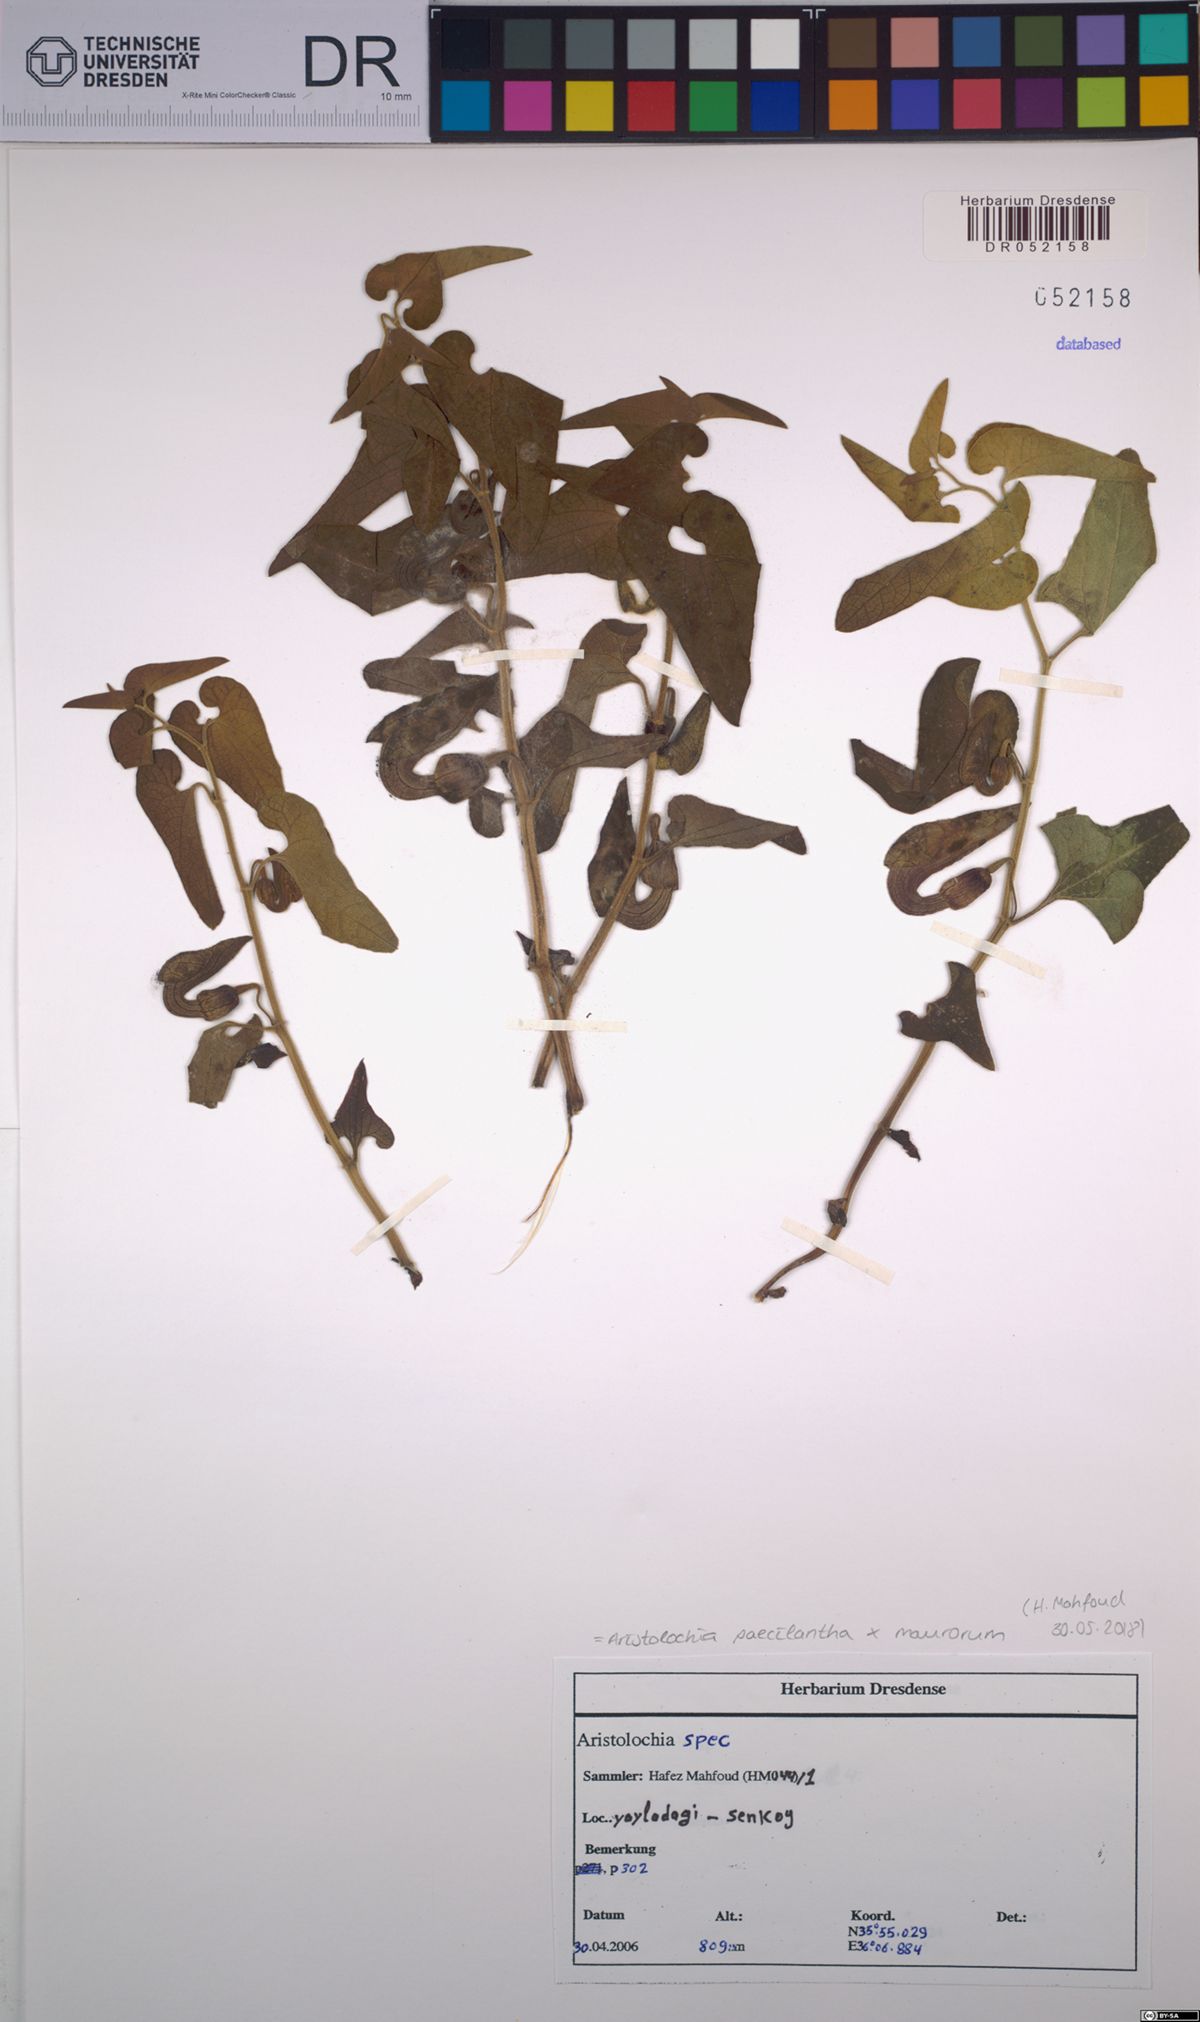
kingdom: Plantae
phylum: Tracheophyta
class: Magnoliopsida
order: Piperales
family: Aristolochiaceae
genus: Aristolochia
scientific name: Aristolochia paecilantha
